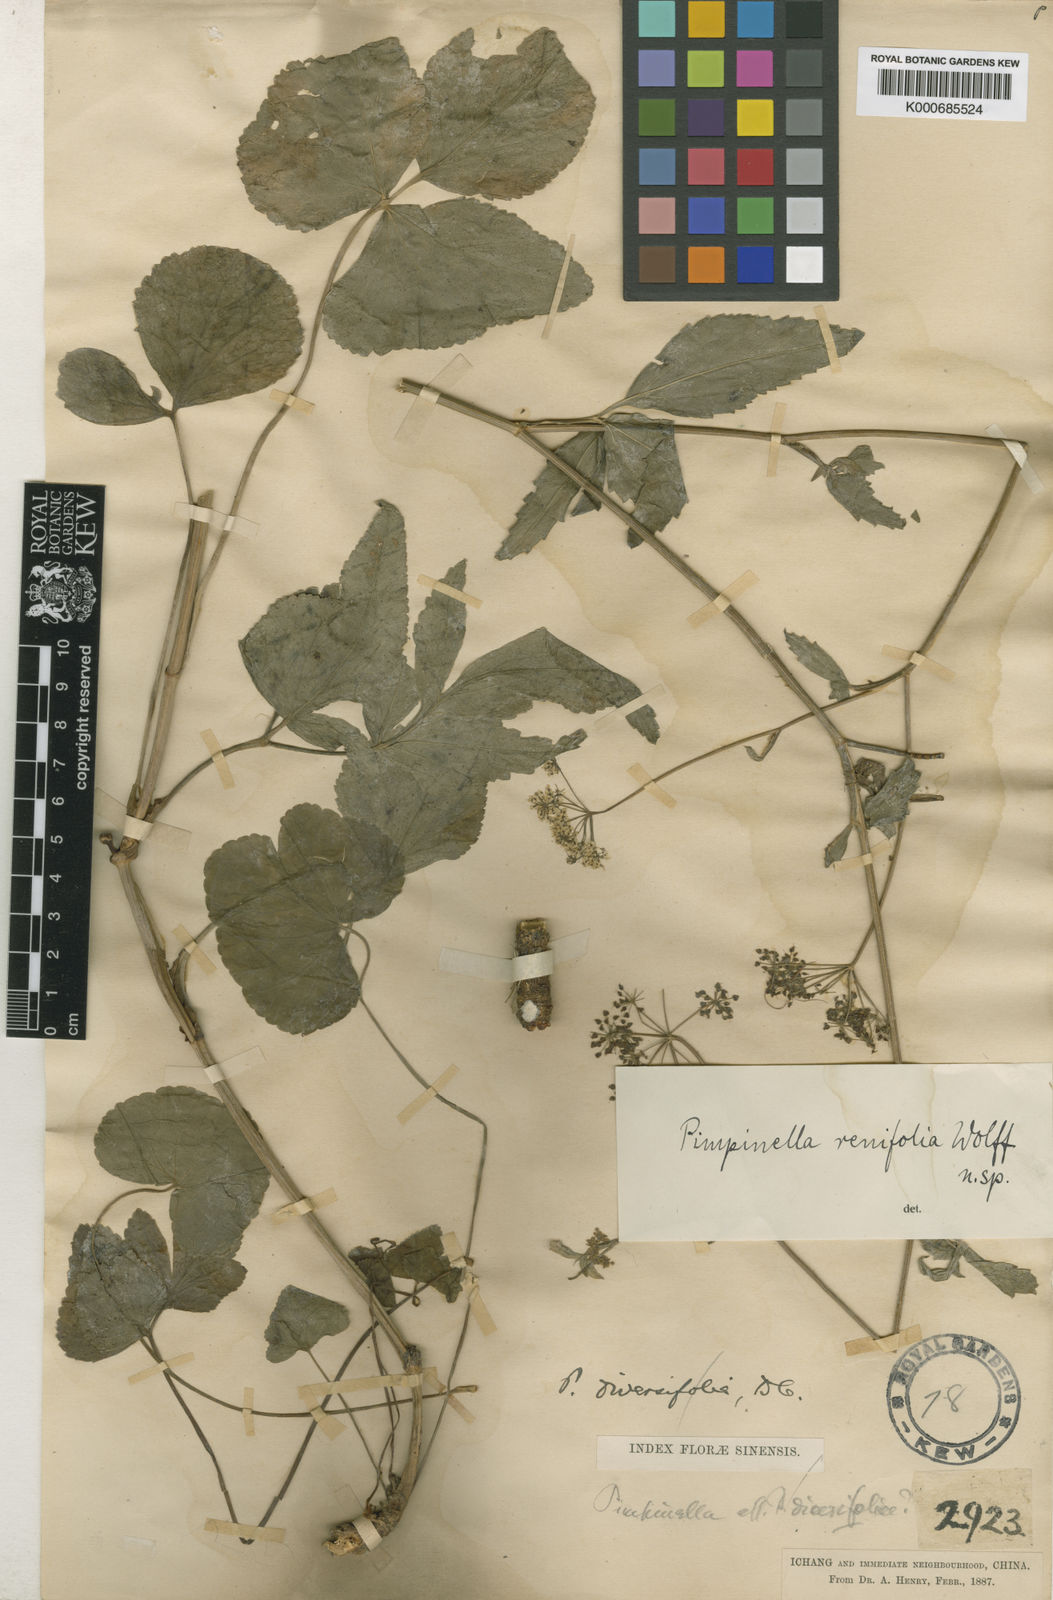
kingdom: Plantae
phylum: Tracheophyta
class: Magnoliopsida
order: Apiales
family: Apiaceae
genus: Pimpinella
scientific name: Pimpinella renifolia
